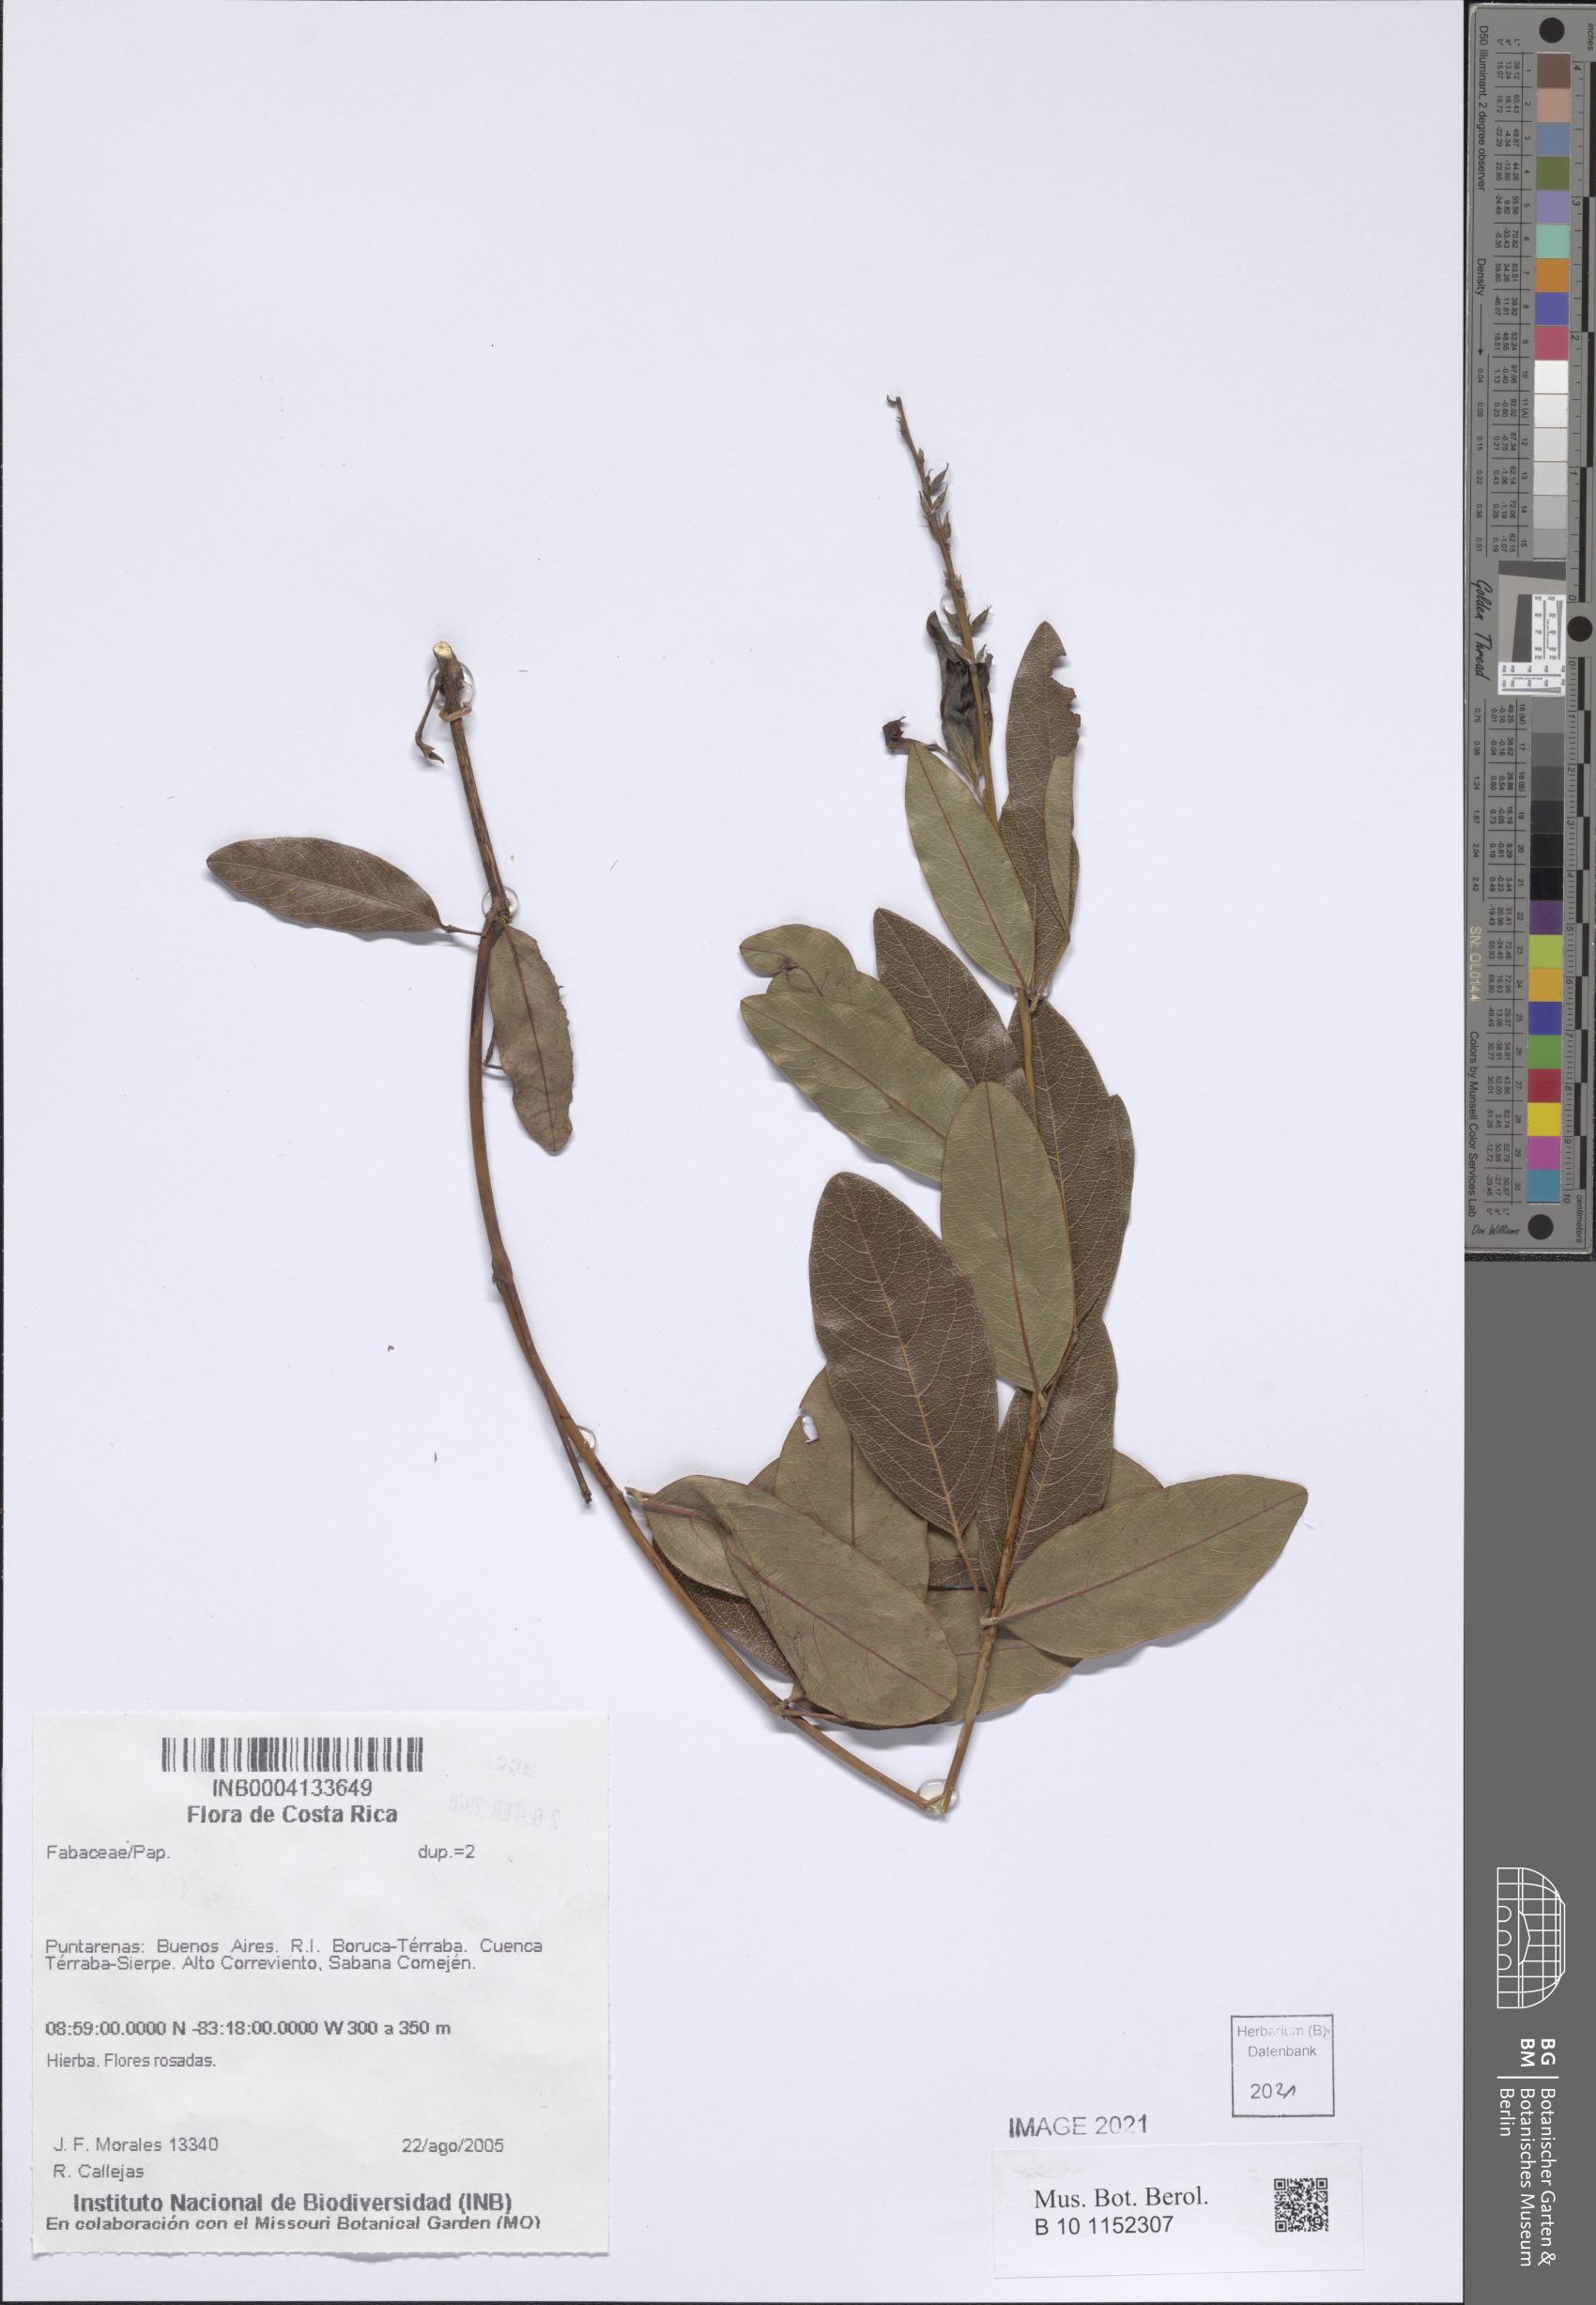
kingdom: Plantae
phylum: Tracheophyta
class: Magnoliopsida
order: Fabales
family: Fabaceae
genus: Galactia
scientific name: Galactia glaucescens
